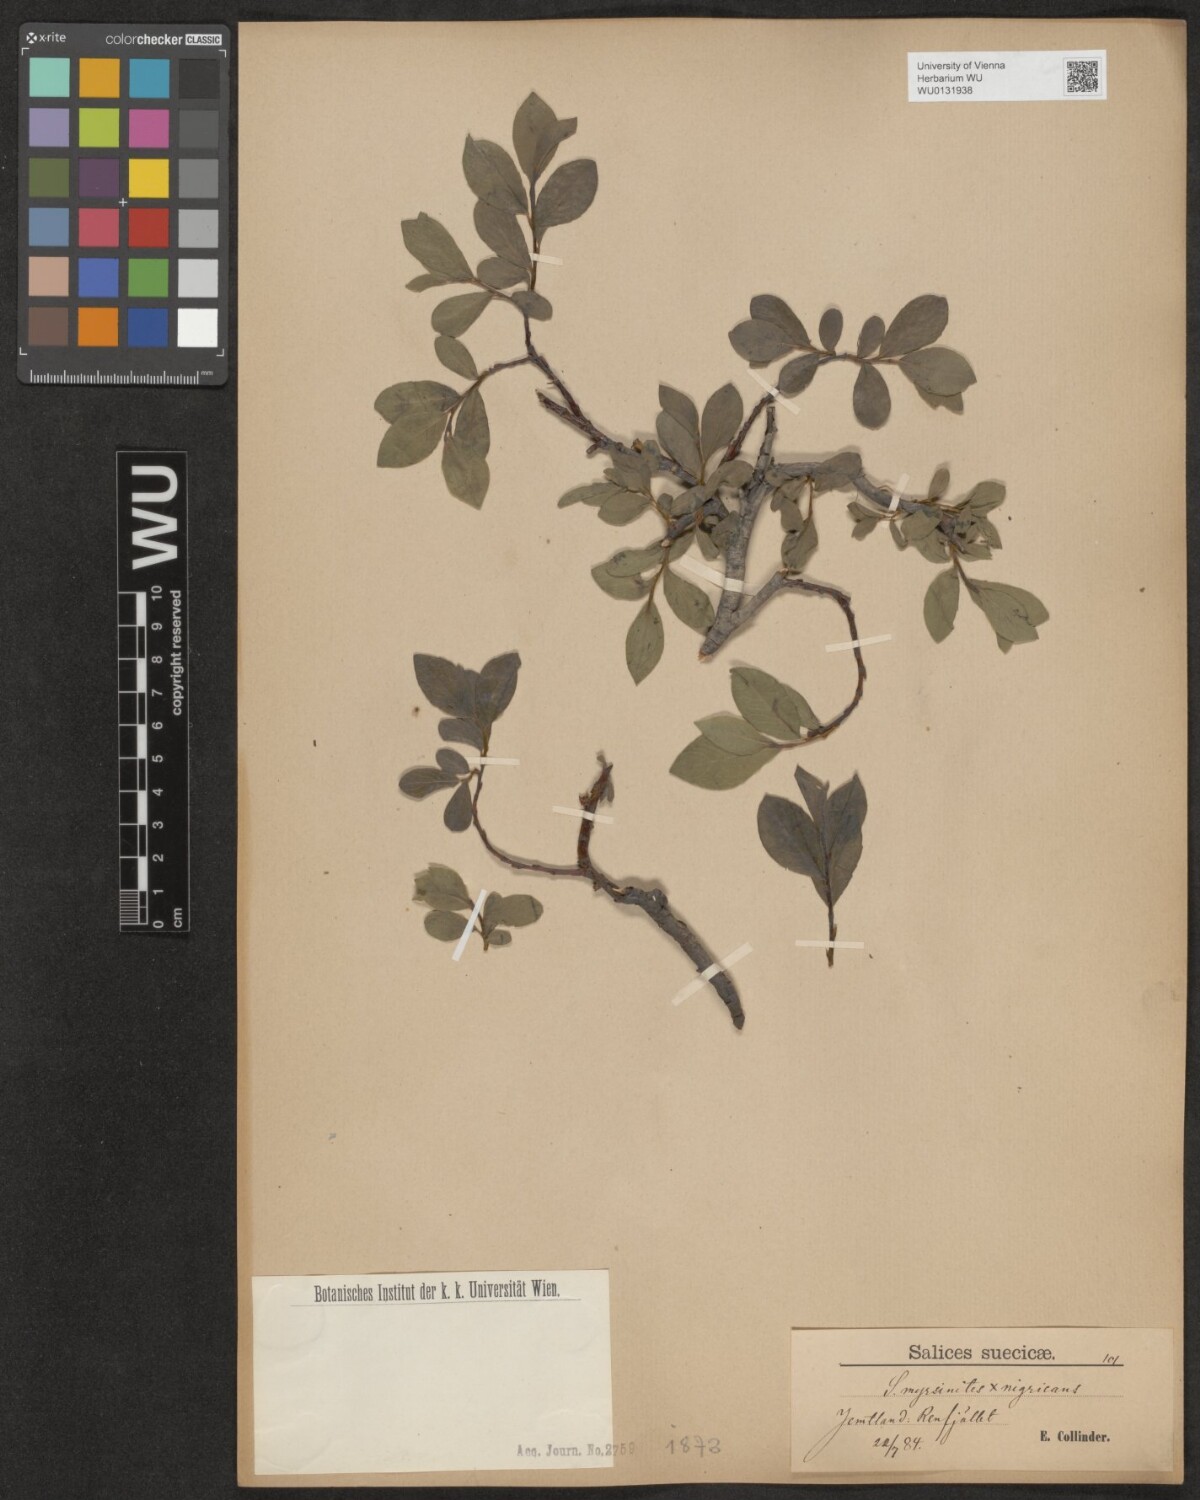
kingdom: Plantae
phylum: Tracheophyta
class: Magnoliopsida
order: Malpighiales
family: Salicaceae
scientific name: Salicaceae
